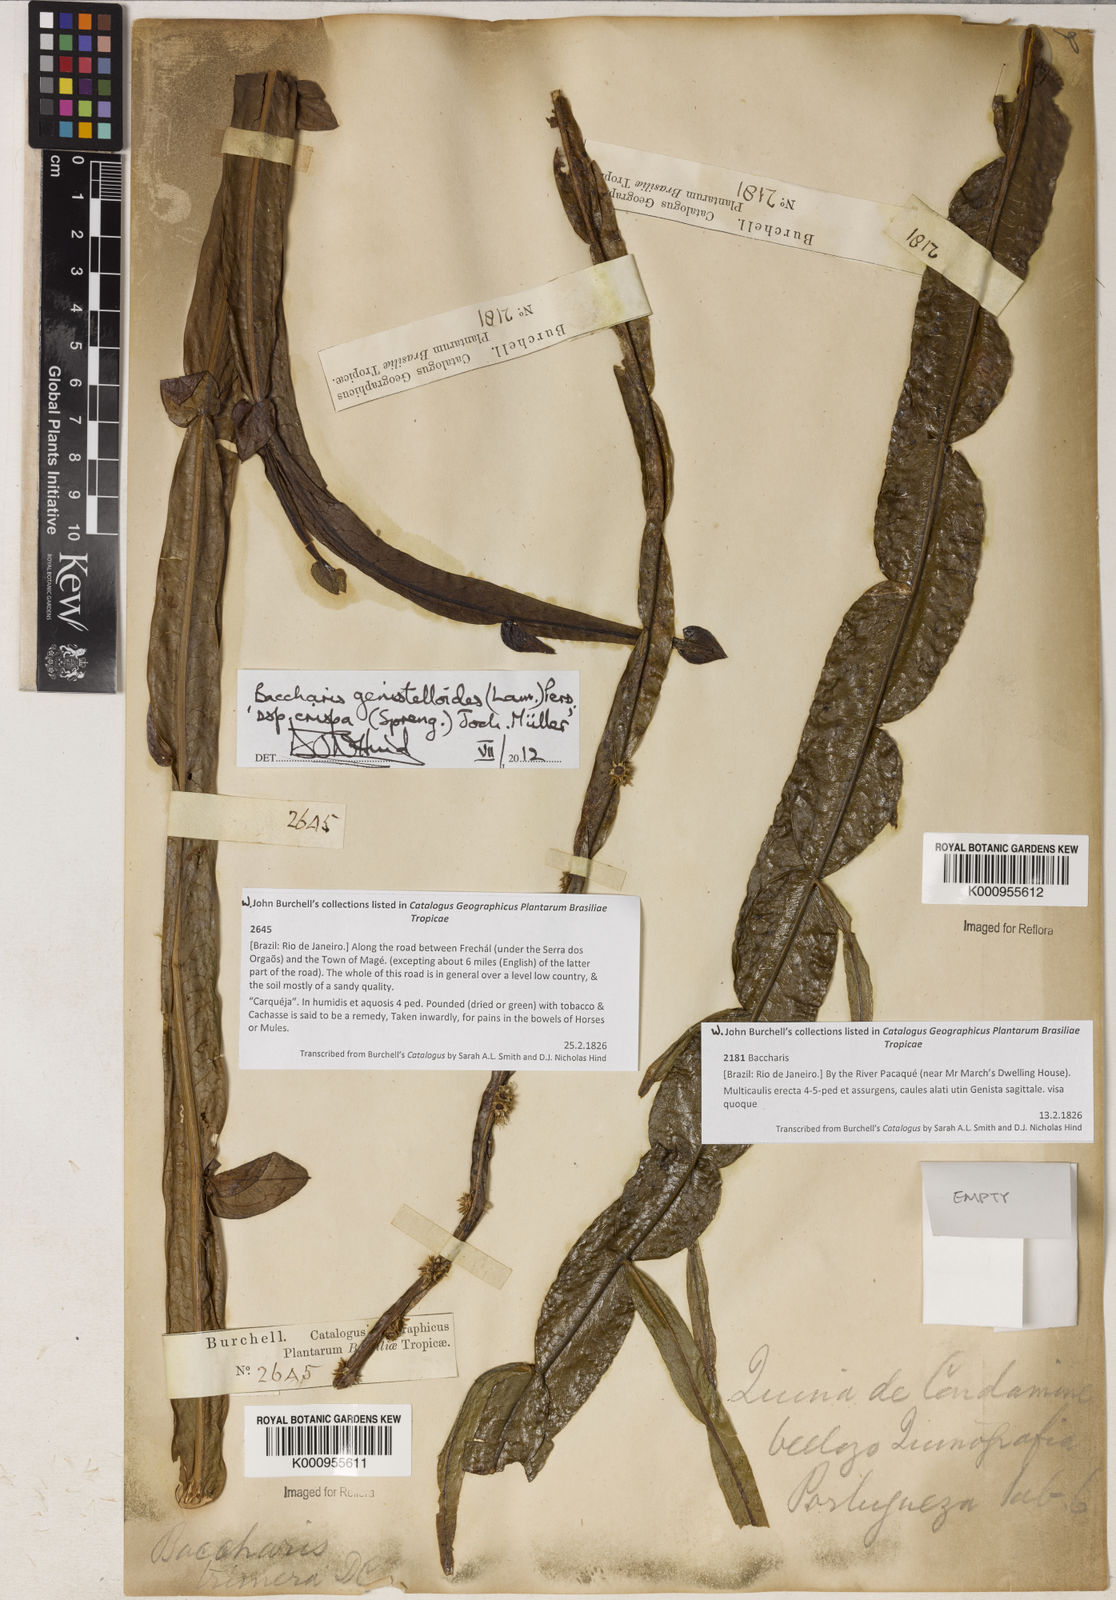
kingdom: Plantae
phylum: Tracheophyta
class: Magnoliopsida
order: Asterales
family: Asteraceae
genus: Baccharis
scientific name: Baccharis
